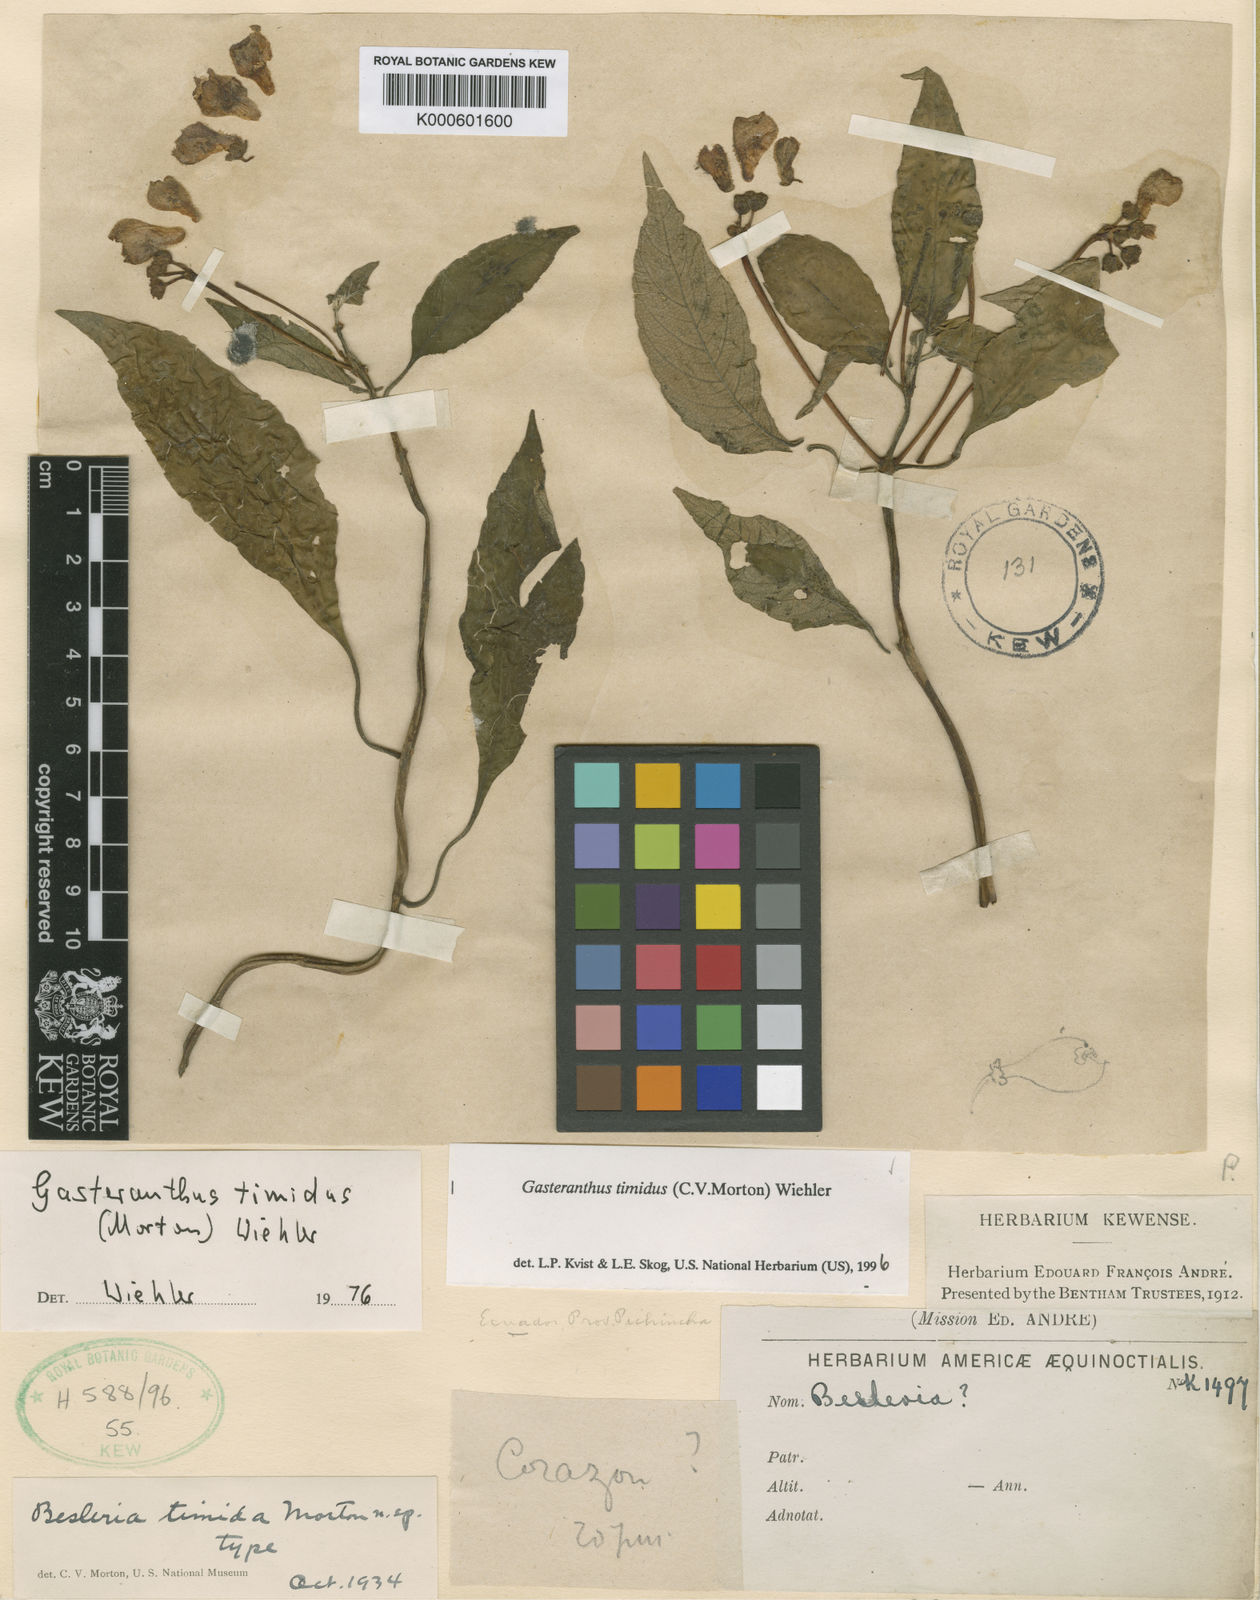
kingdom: Plantae
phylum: Tracheophyta
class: Magnoliopsida
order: Lamiales
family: Gesneriaceae
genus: Gasteranthus
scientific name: Gasteranthus timidus
